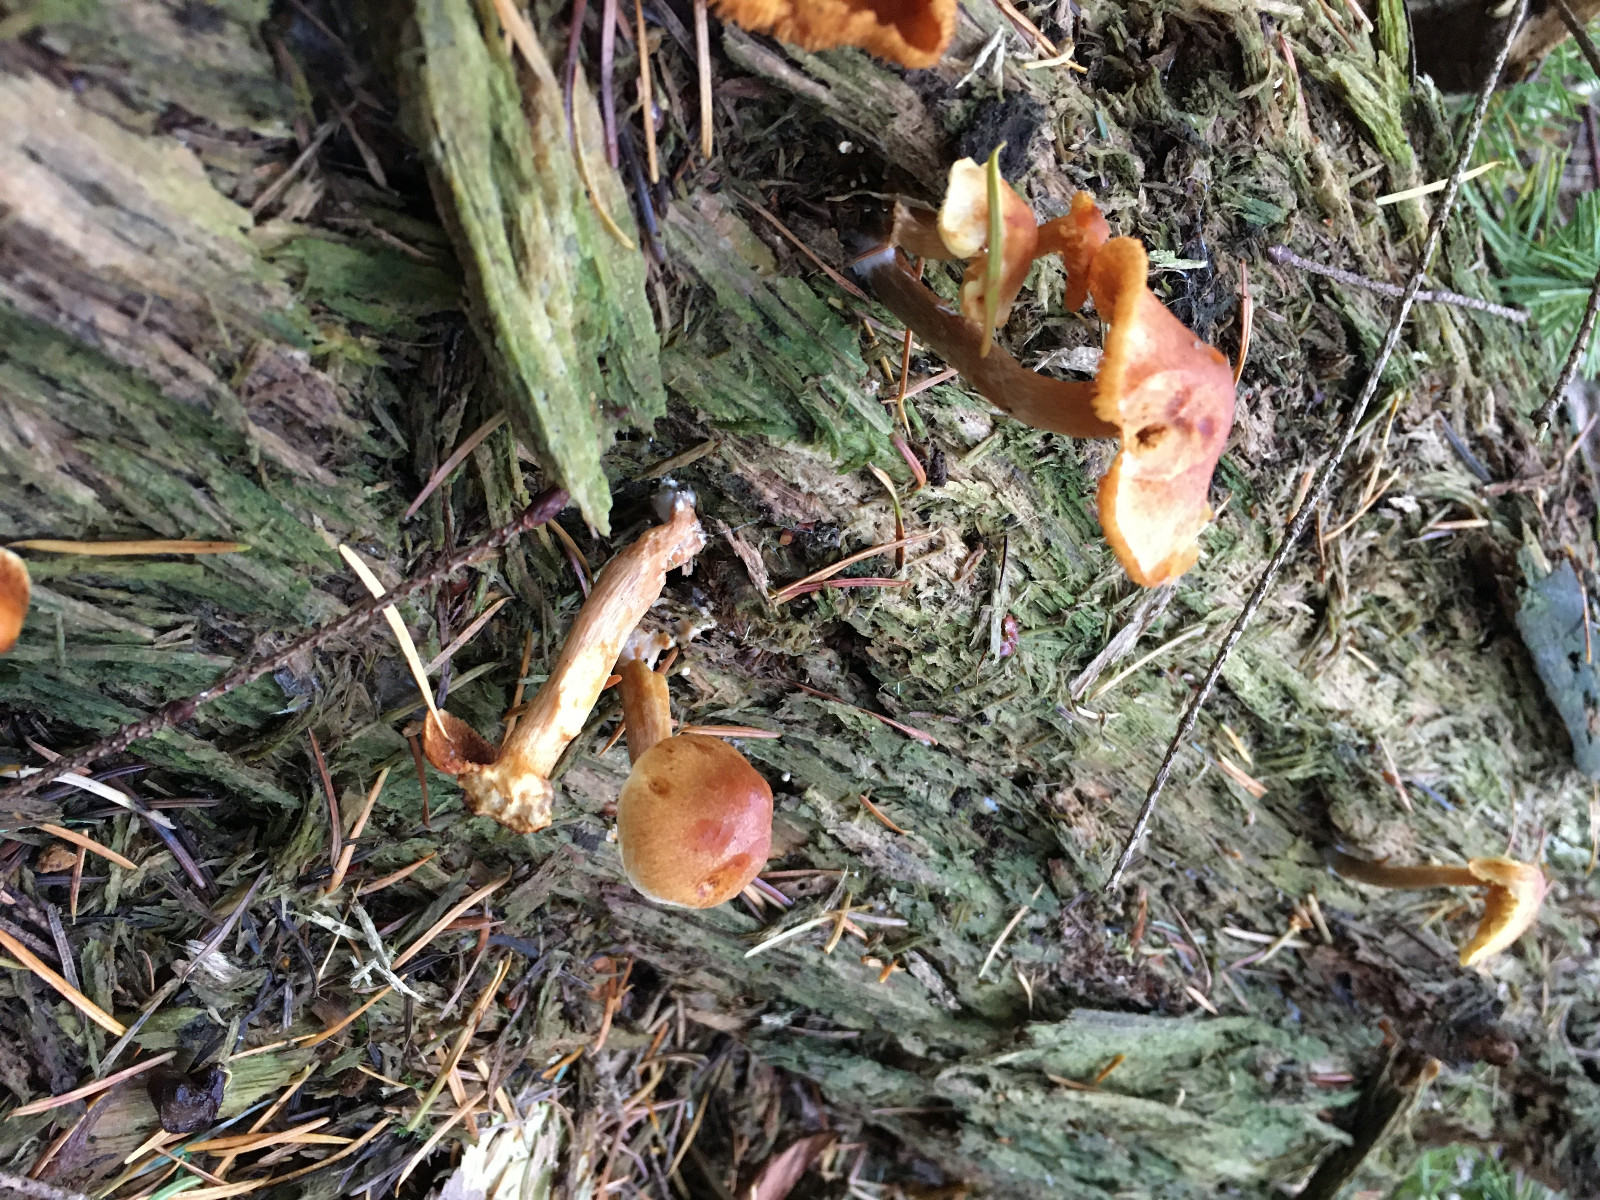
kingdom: Fungi
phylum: Basidiomycota
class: Agaricomycetes
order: Agaricales
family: Hymenogastraceae
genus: Gymnopilus
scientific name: Gymnopilus penetrans
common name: plettet flammehat
